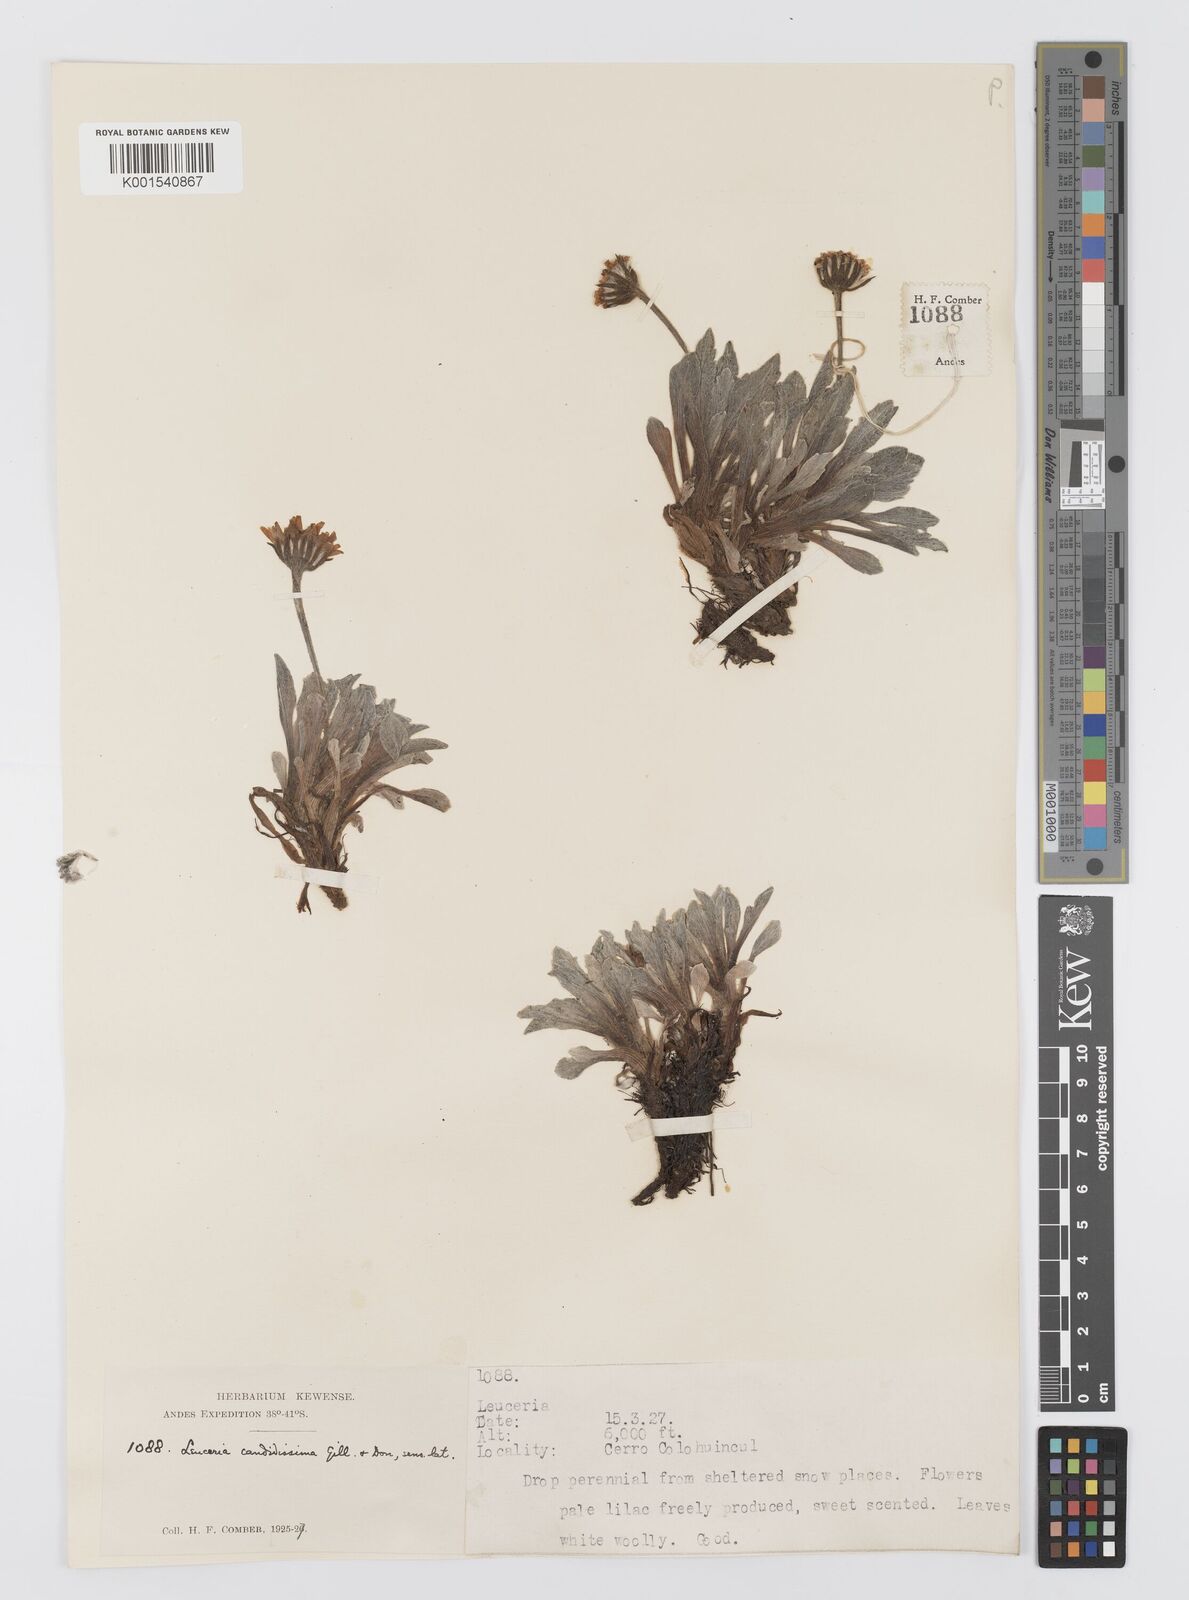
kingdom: Plantae
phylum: Tracheophyta
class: Magnoliopsida
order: Asterales
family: Asteraceae
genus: Leucheria
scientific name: Leucheria candidissima
